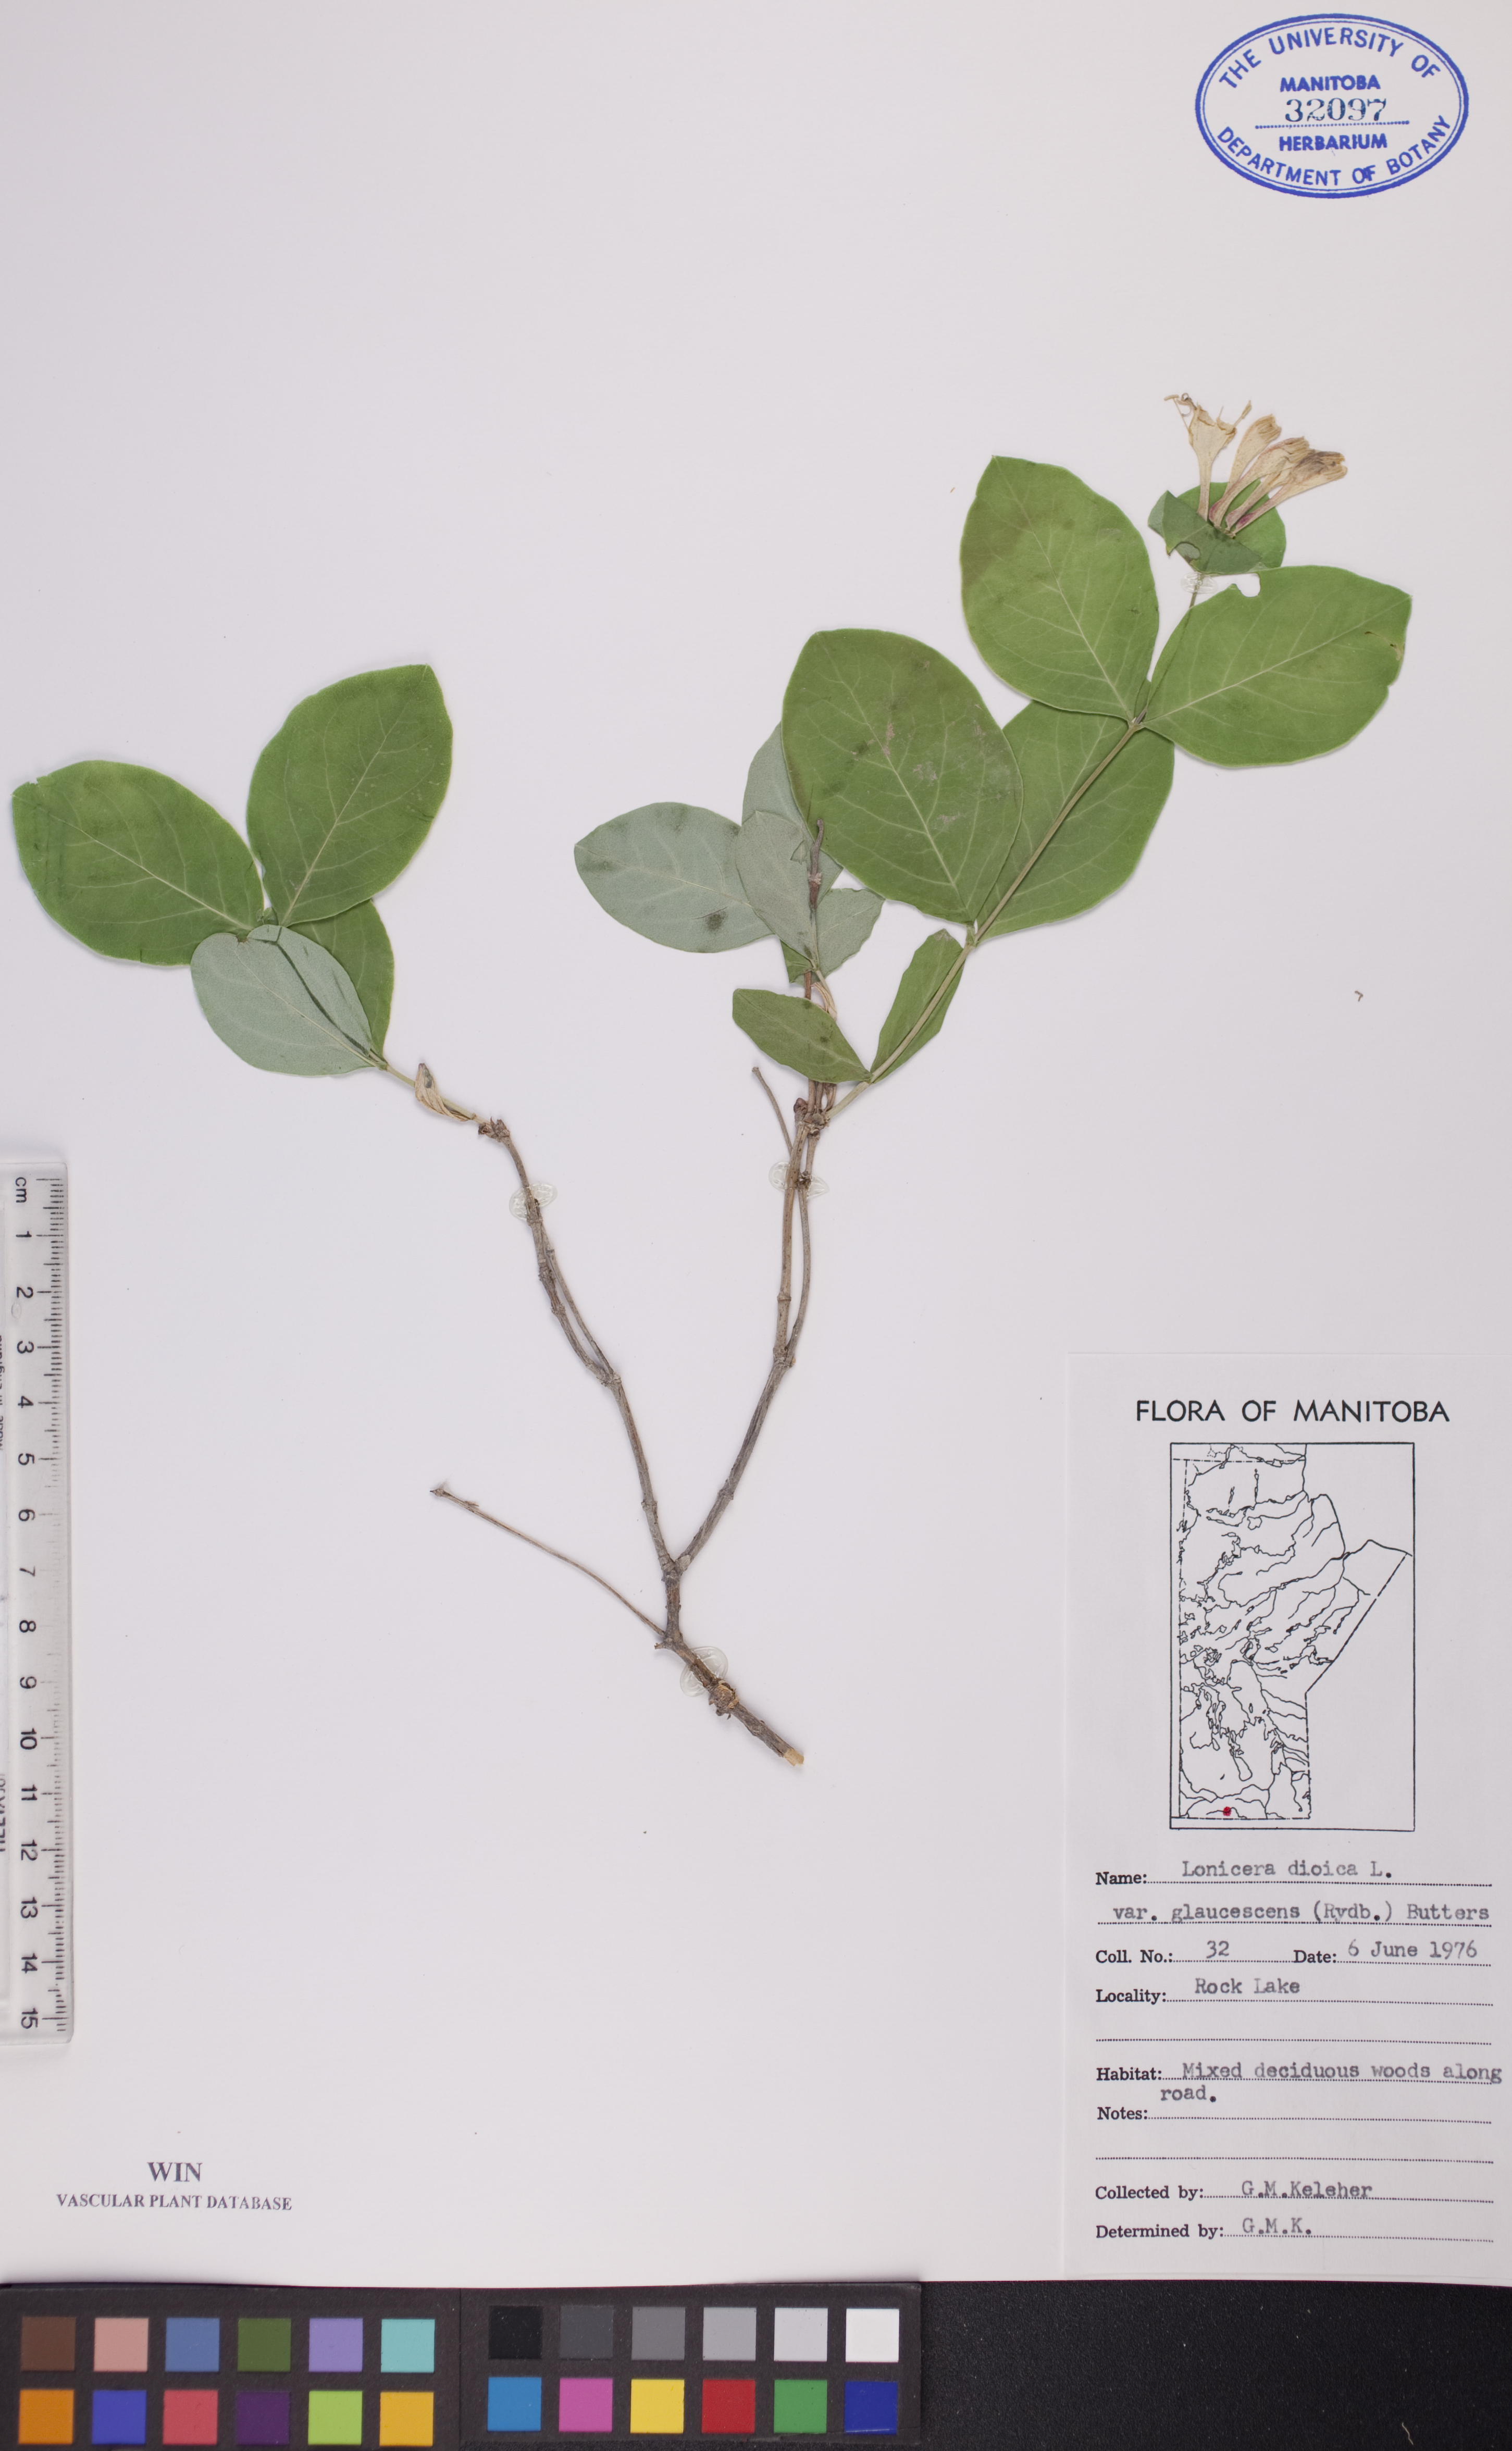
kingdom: Plantae
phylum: Tracheophyta
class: Magnoliopsida
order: Dipsacales
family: Caprifoliaceae
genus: Lonicera
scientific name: Lonicera dioica
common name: Limber honeysuckle
